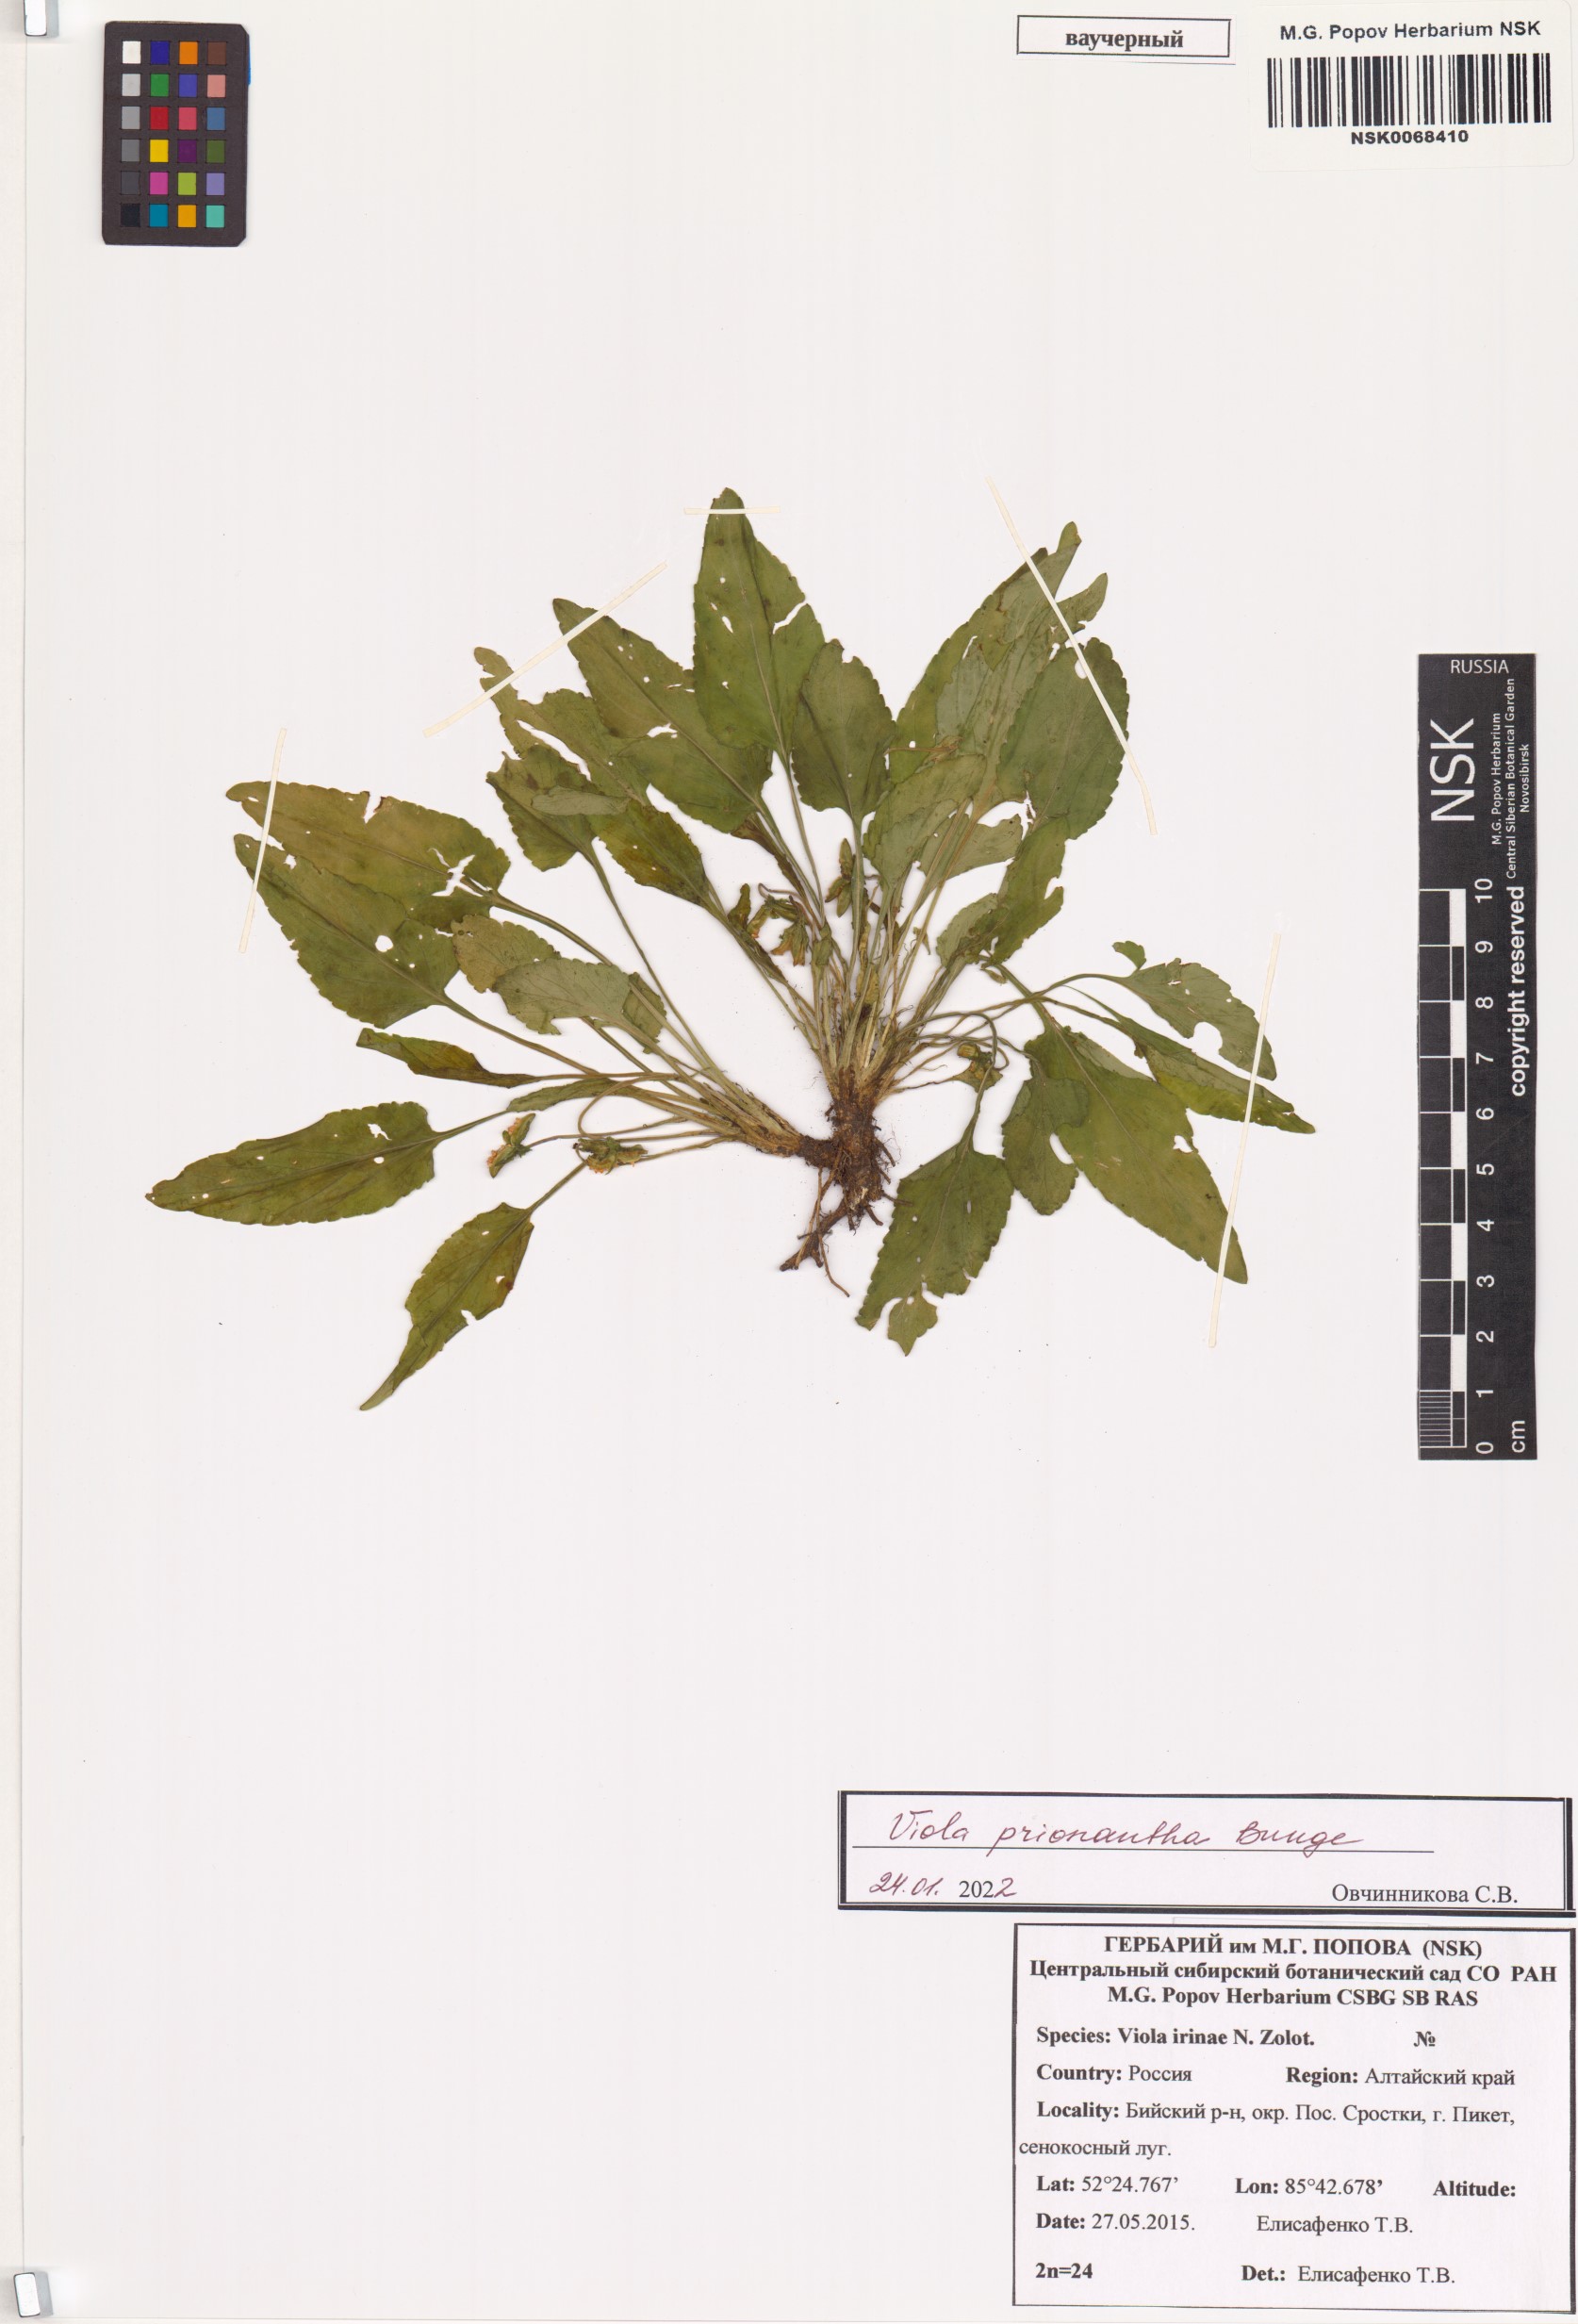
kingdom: Plantae
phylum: Tracheophyta
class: Magnoliopsida
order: Malpighiales
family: Violaceae
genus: Viola
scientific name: Viola prionantha
